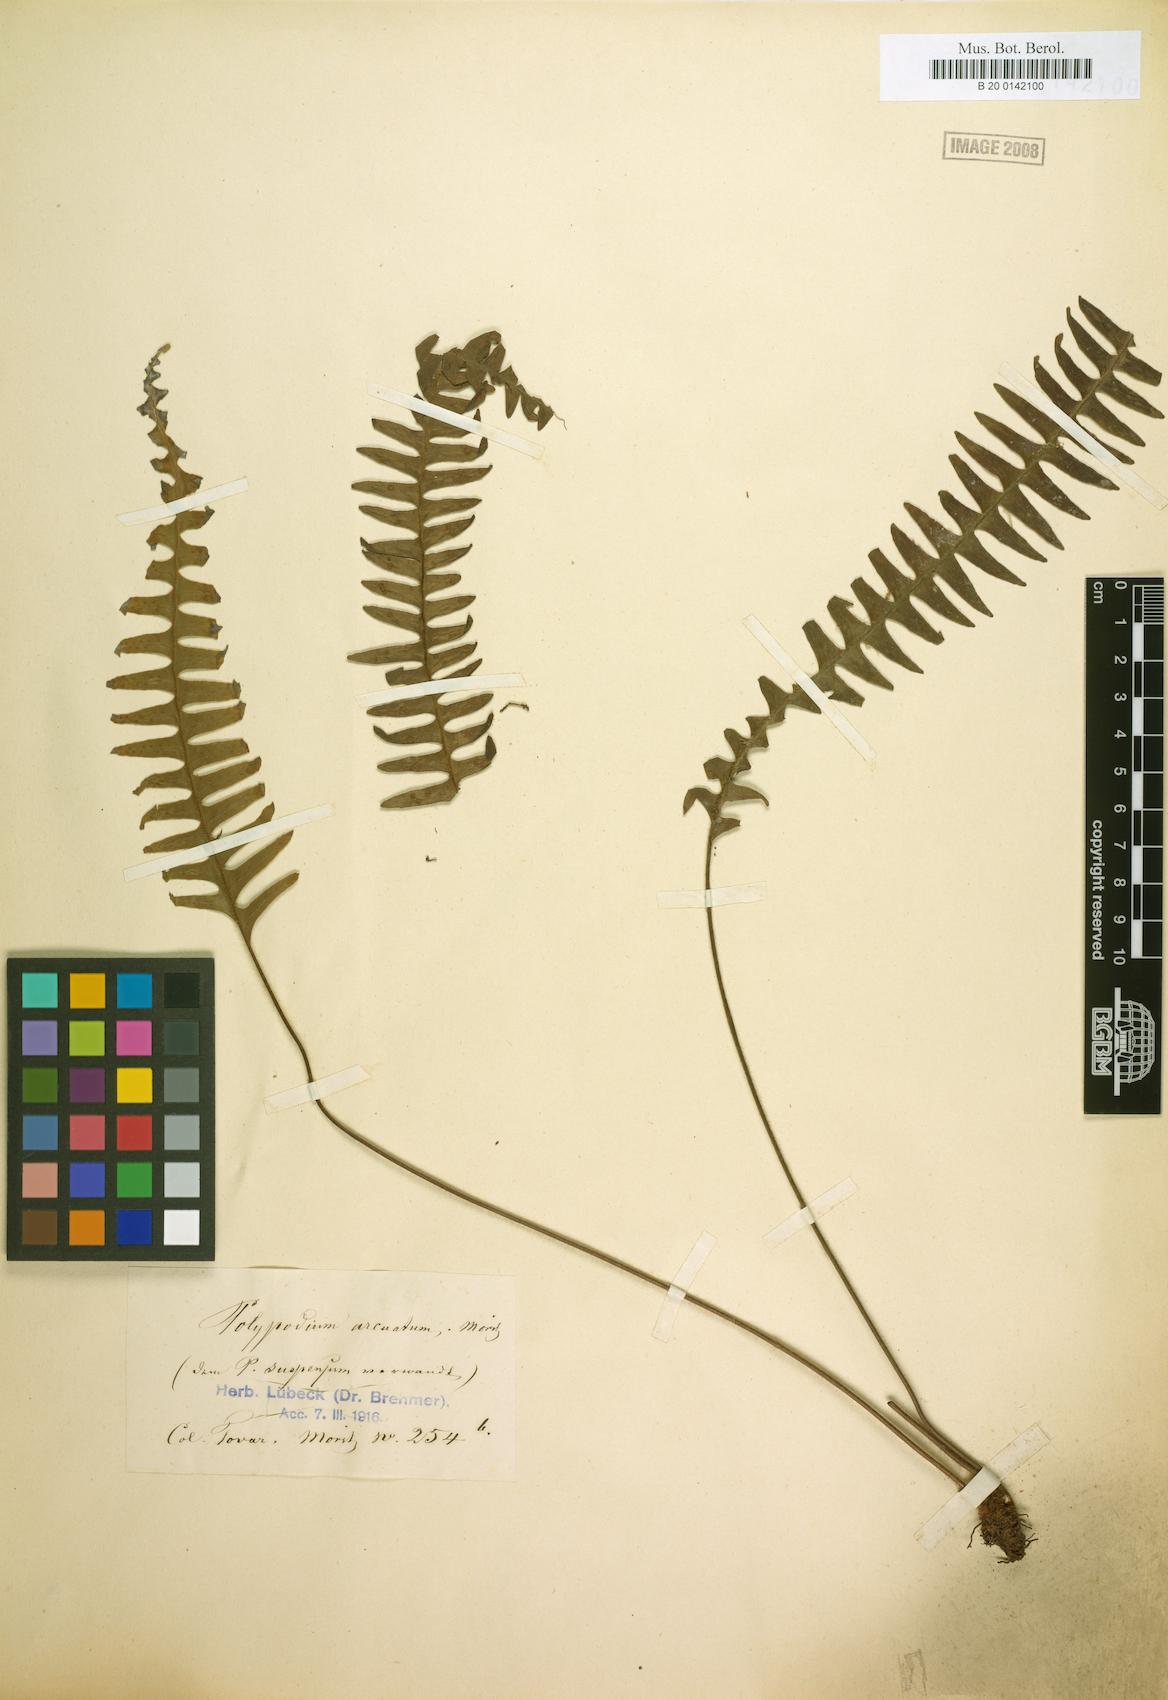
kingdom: Plantae
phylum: Tracheophyta
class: Polypodiopsida
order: Polypodiales
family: Polypodiaceae
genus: Terpsichore
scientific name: Terpsichore chrysleri
